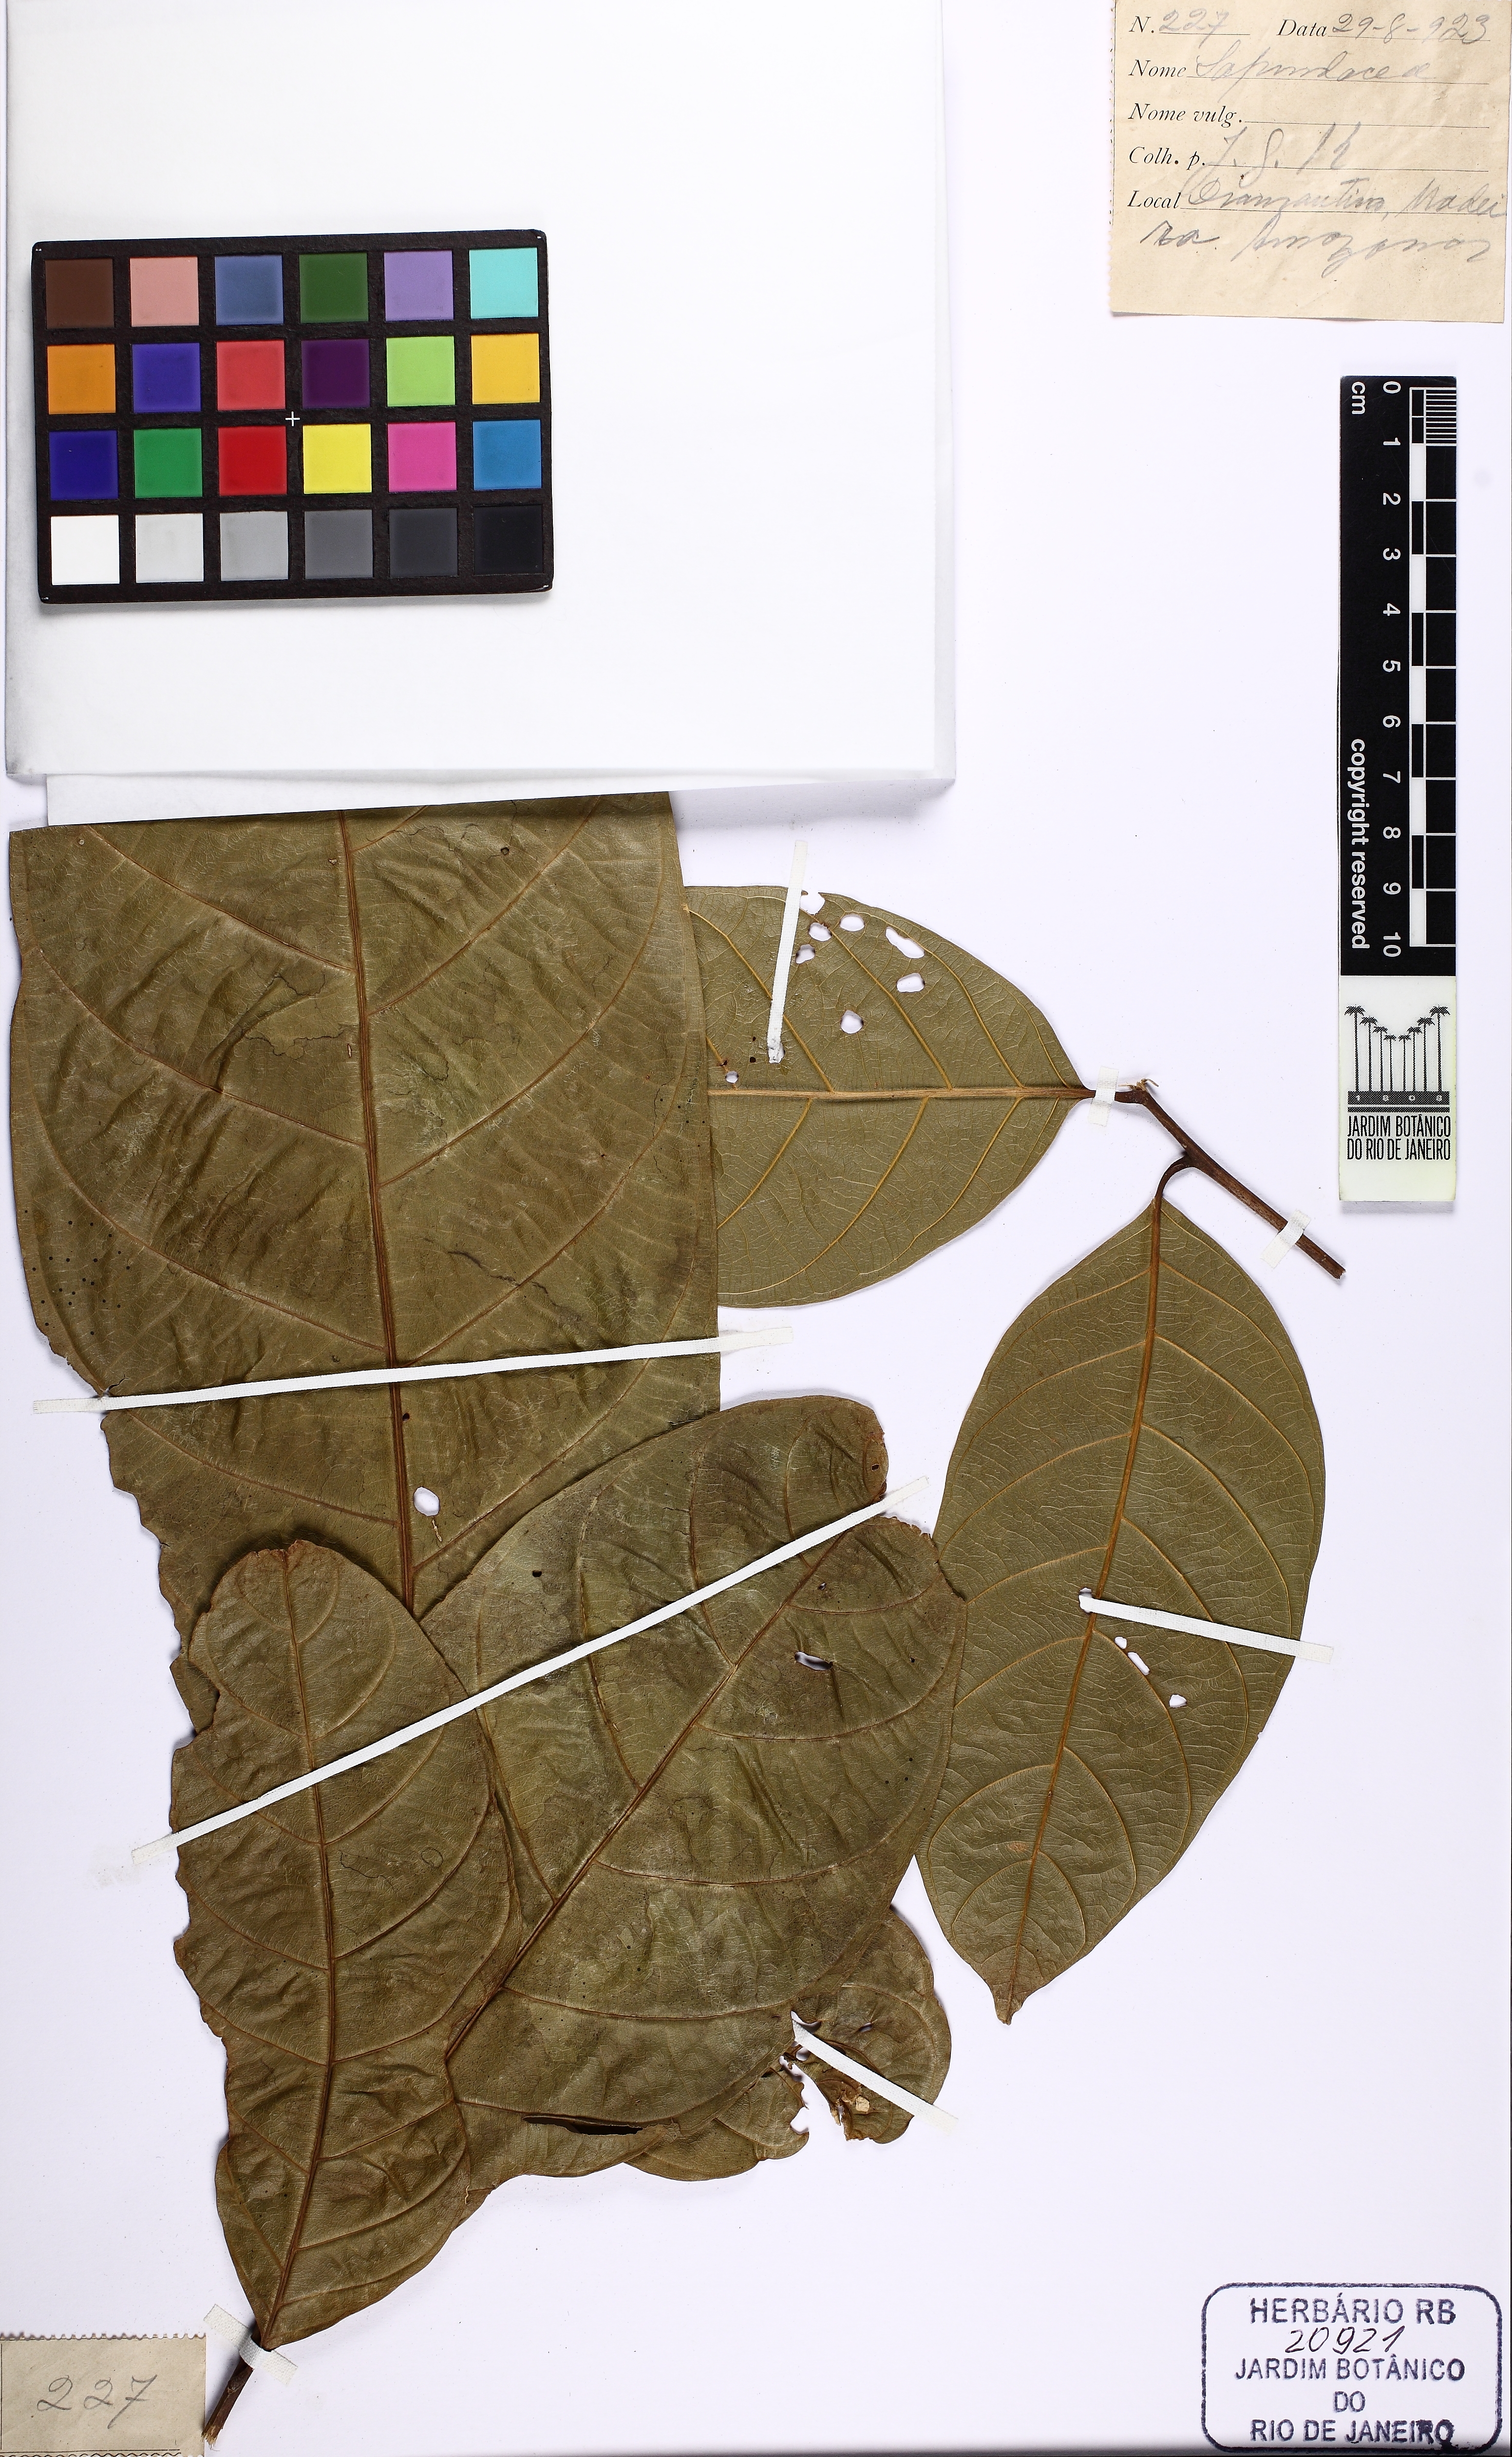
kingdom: Plantae
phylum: Tracheophyta
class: Magnoliopsida
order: Sapindales
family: Sapindaceae
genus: Matayba
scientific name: Matayba purgans
